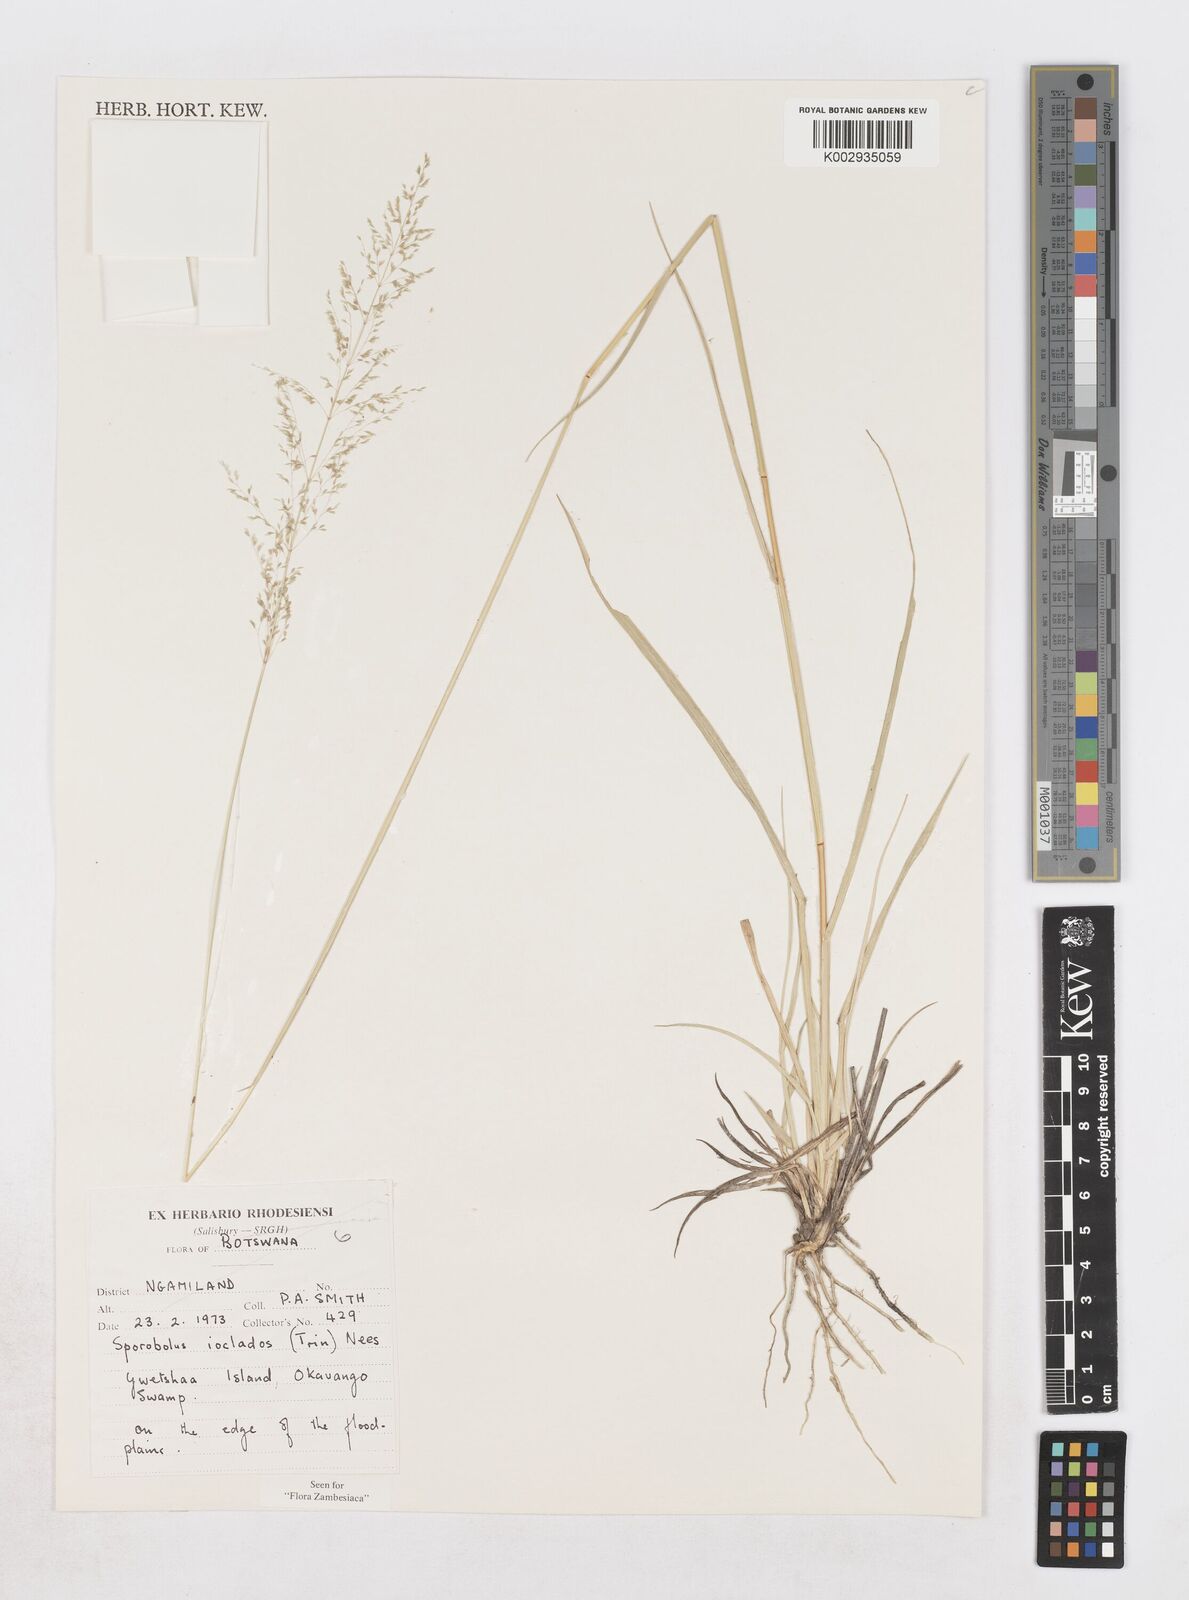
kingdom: Plantae
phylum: Tracheophyta
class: Liliopsida
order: Poales
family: Poaceae
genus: Sporobolus
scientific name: Sporobolus ioclados
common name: Pan dropseed
